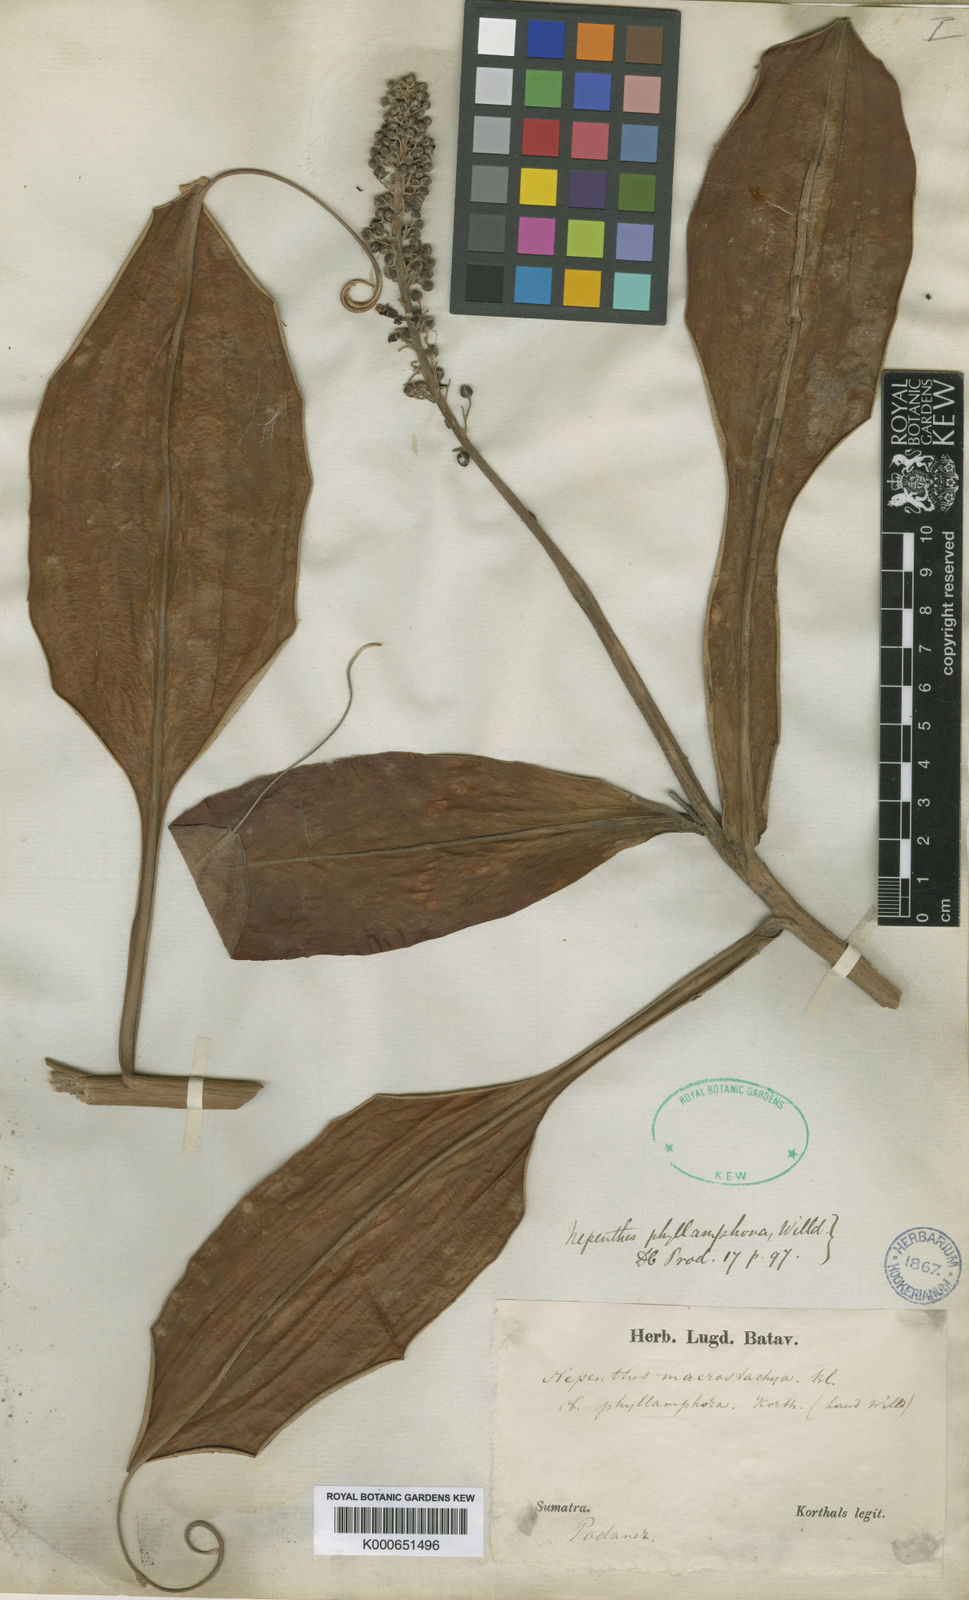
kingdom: Plantae
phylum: Tracheophyta
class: Magnoliopsida
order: Caryophyllales
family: Nepenthaceae
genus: Nepenthes
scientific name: Nepenthes mirabilis
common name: Tropical pitcherplant
